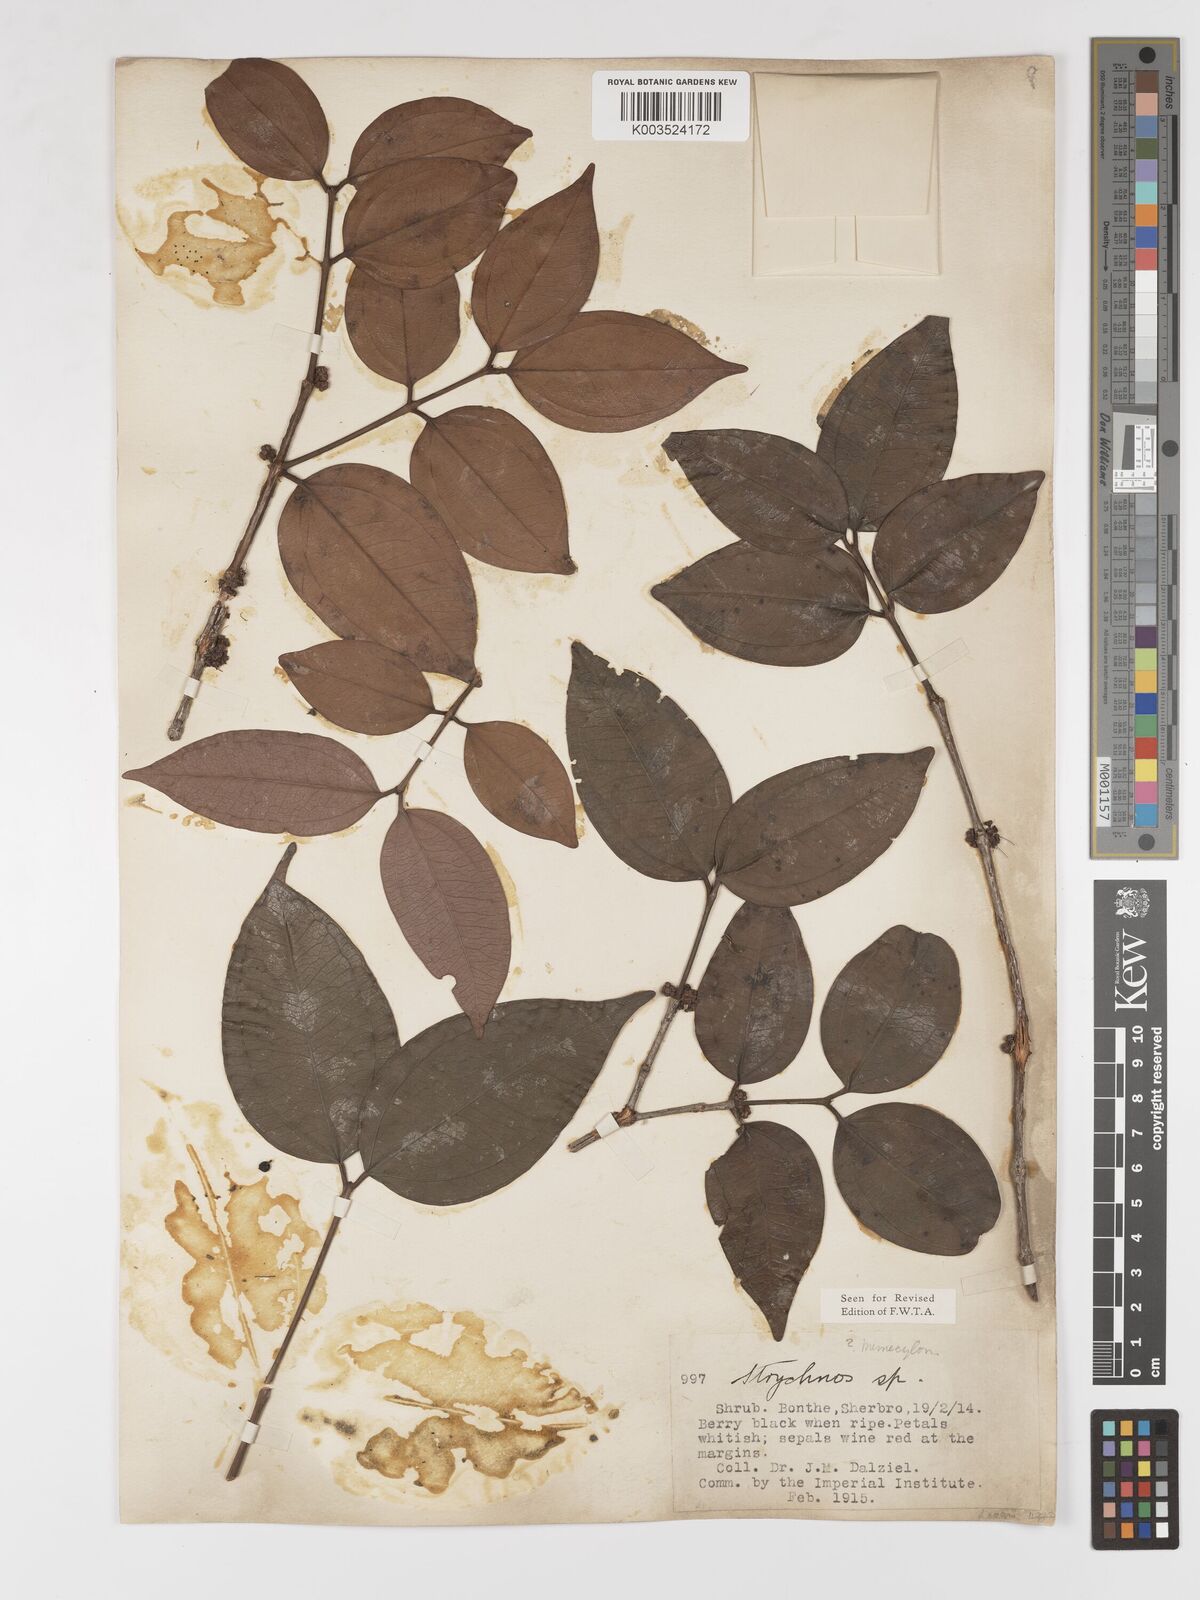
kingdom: Plantae
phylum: Tracheophyta
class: Magnoliopsida
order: Myrtales
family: Melastomataceae
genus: Warneckea
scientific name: Warneckea fascicularis
